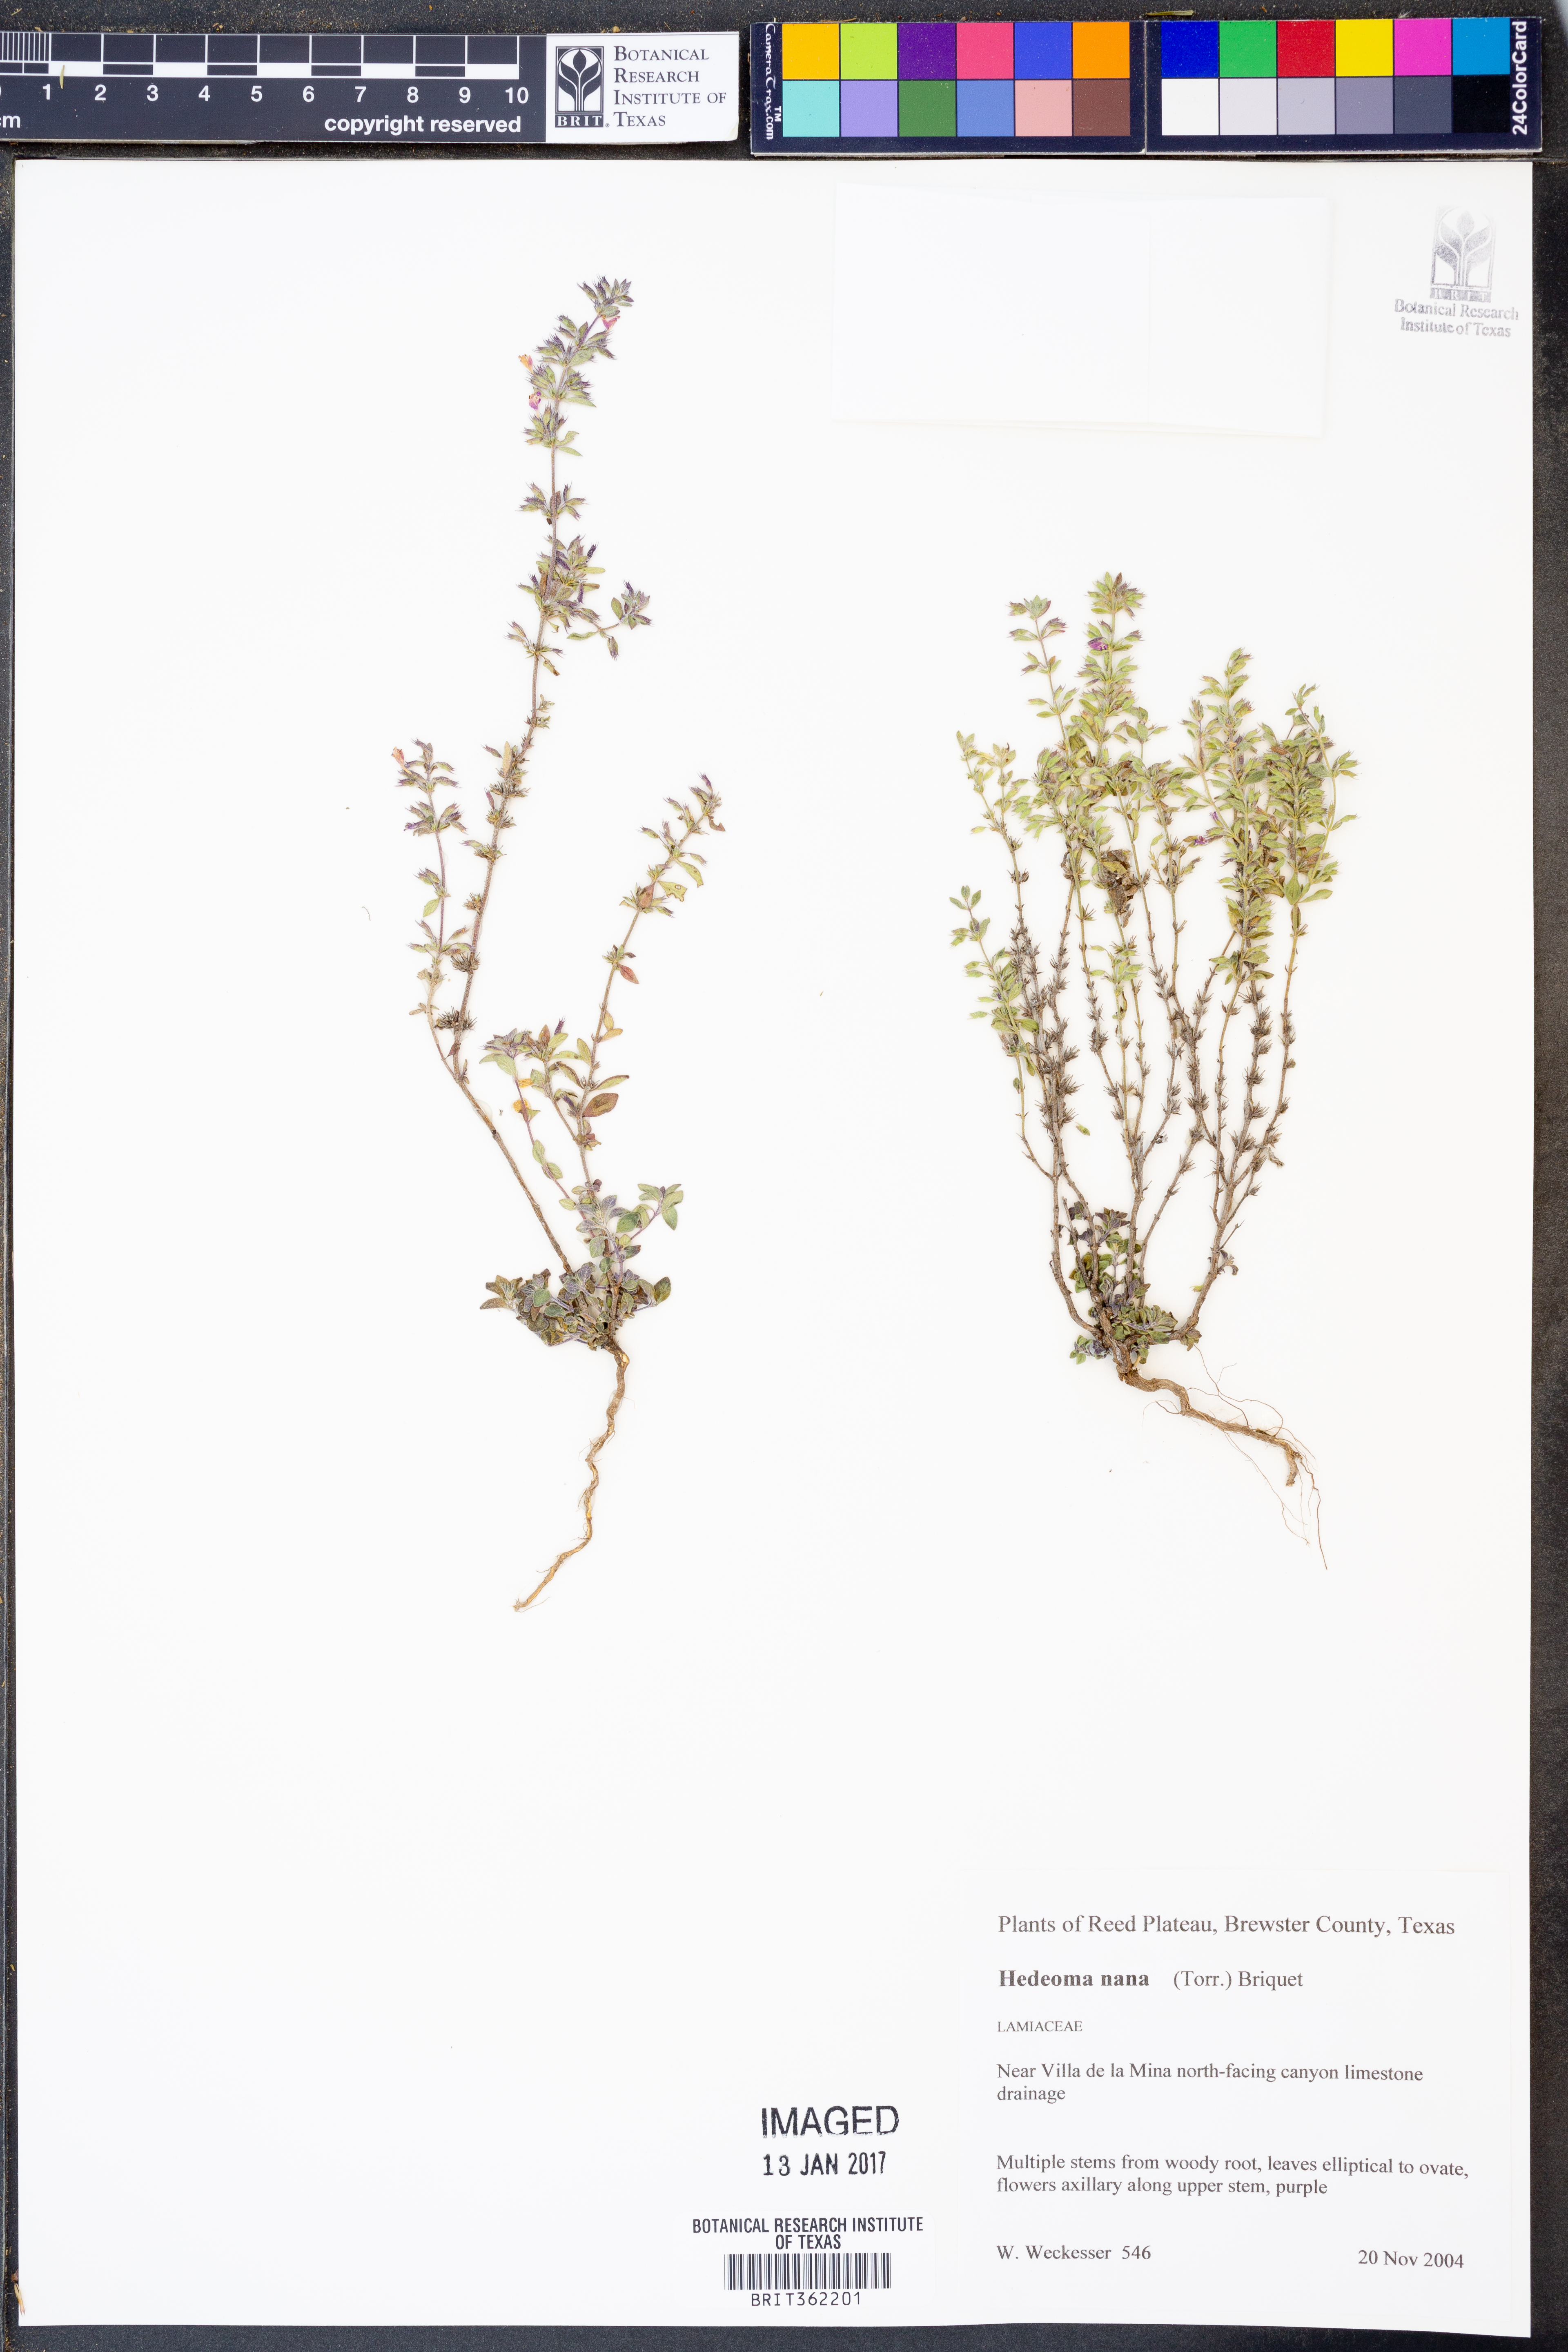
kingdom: Plantae
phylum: Tracheophyta
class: Magnoliopsida
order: Lamiales
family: Lamiaceae
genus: Hedeoma
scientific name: Hedeoma nana
